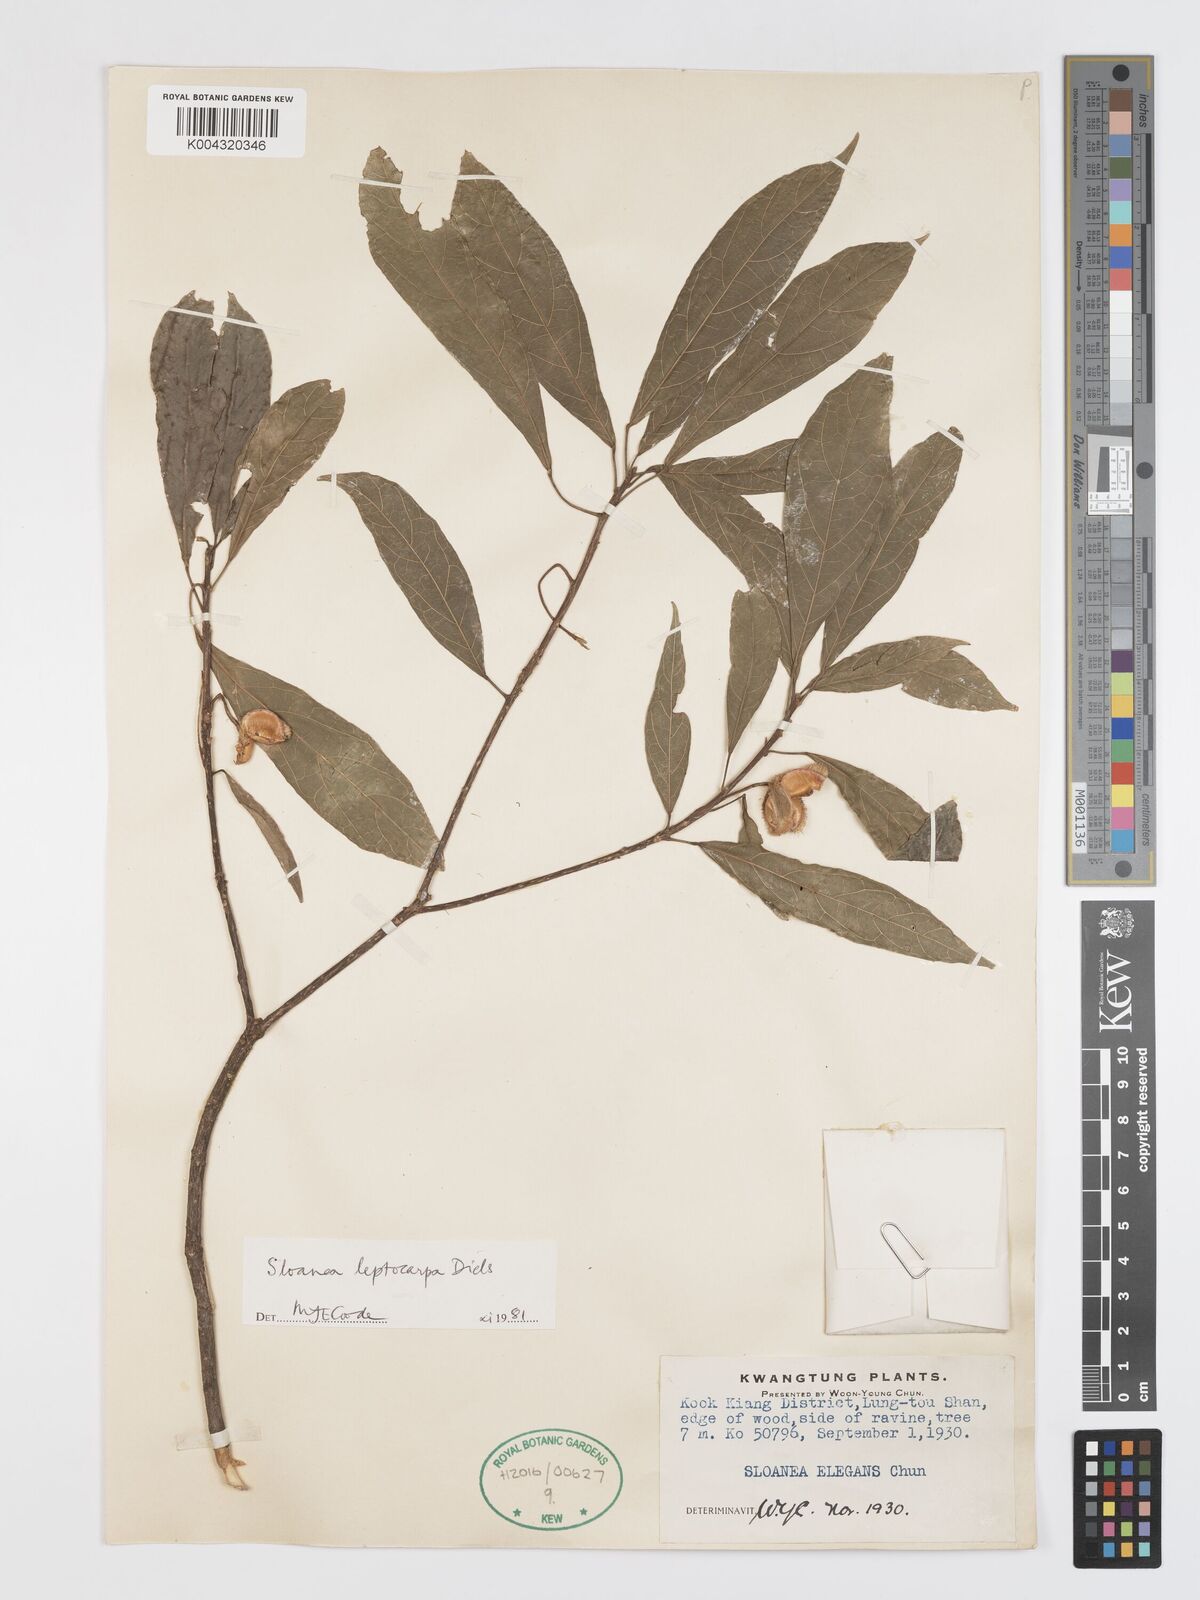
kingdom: Plantae
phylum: Tracheophyta
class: Magnoliopsida
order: Oxalidales
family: Elaeocarpaceae
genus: Sloanea
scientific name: Sloanea leptocarpa
